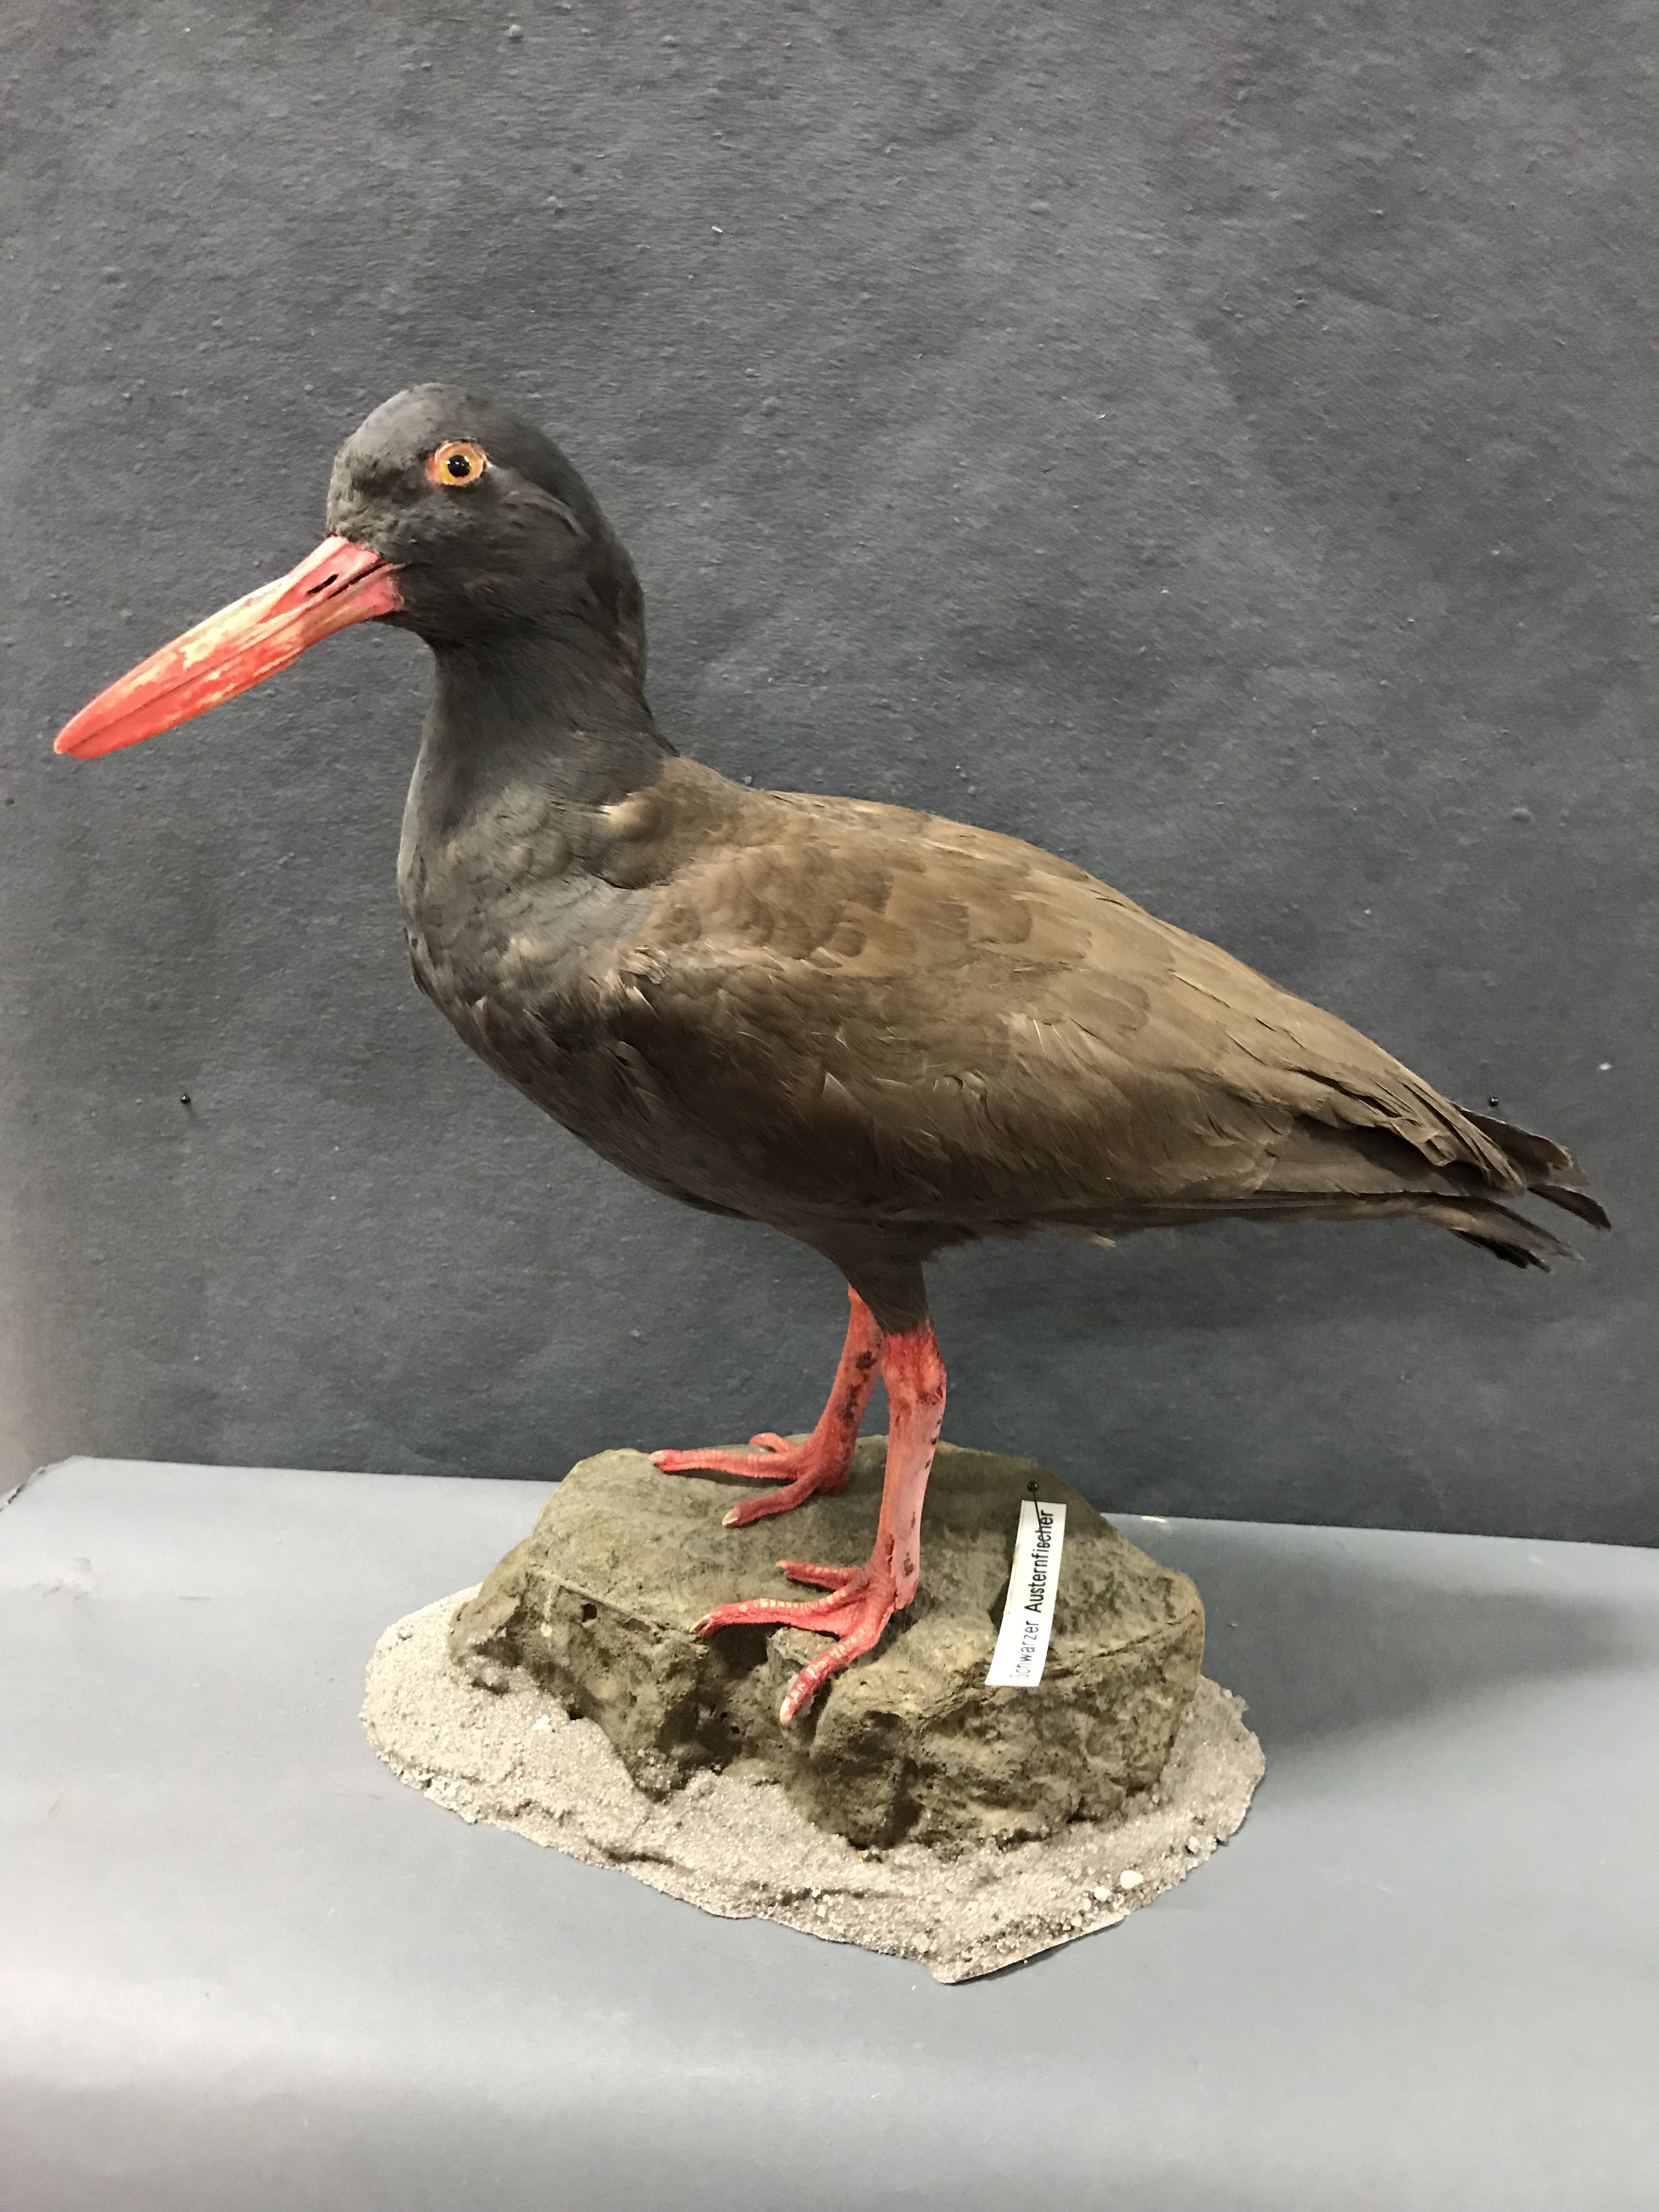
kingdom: Animalia
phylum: Chordata
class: Aves
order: Charadriiformes
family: Haematopodidae
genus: Haematopus
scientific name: Haematopus ater
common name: Blackish oystercatcher
